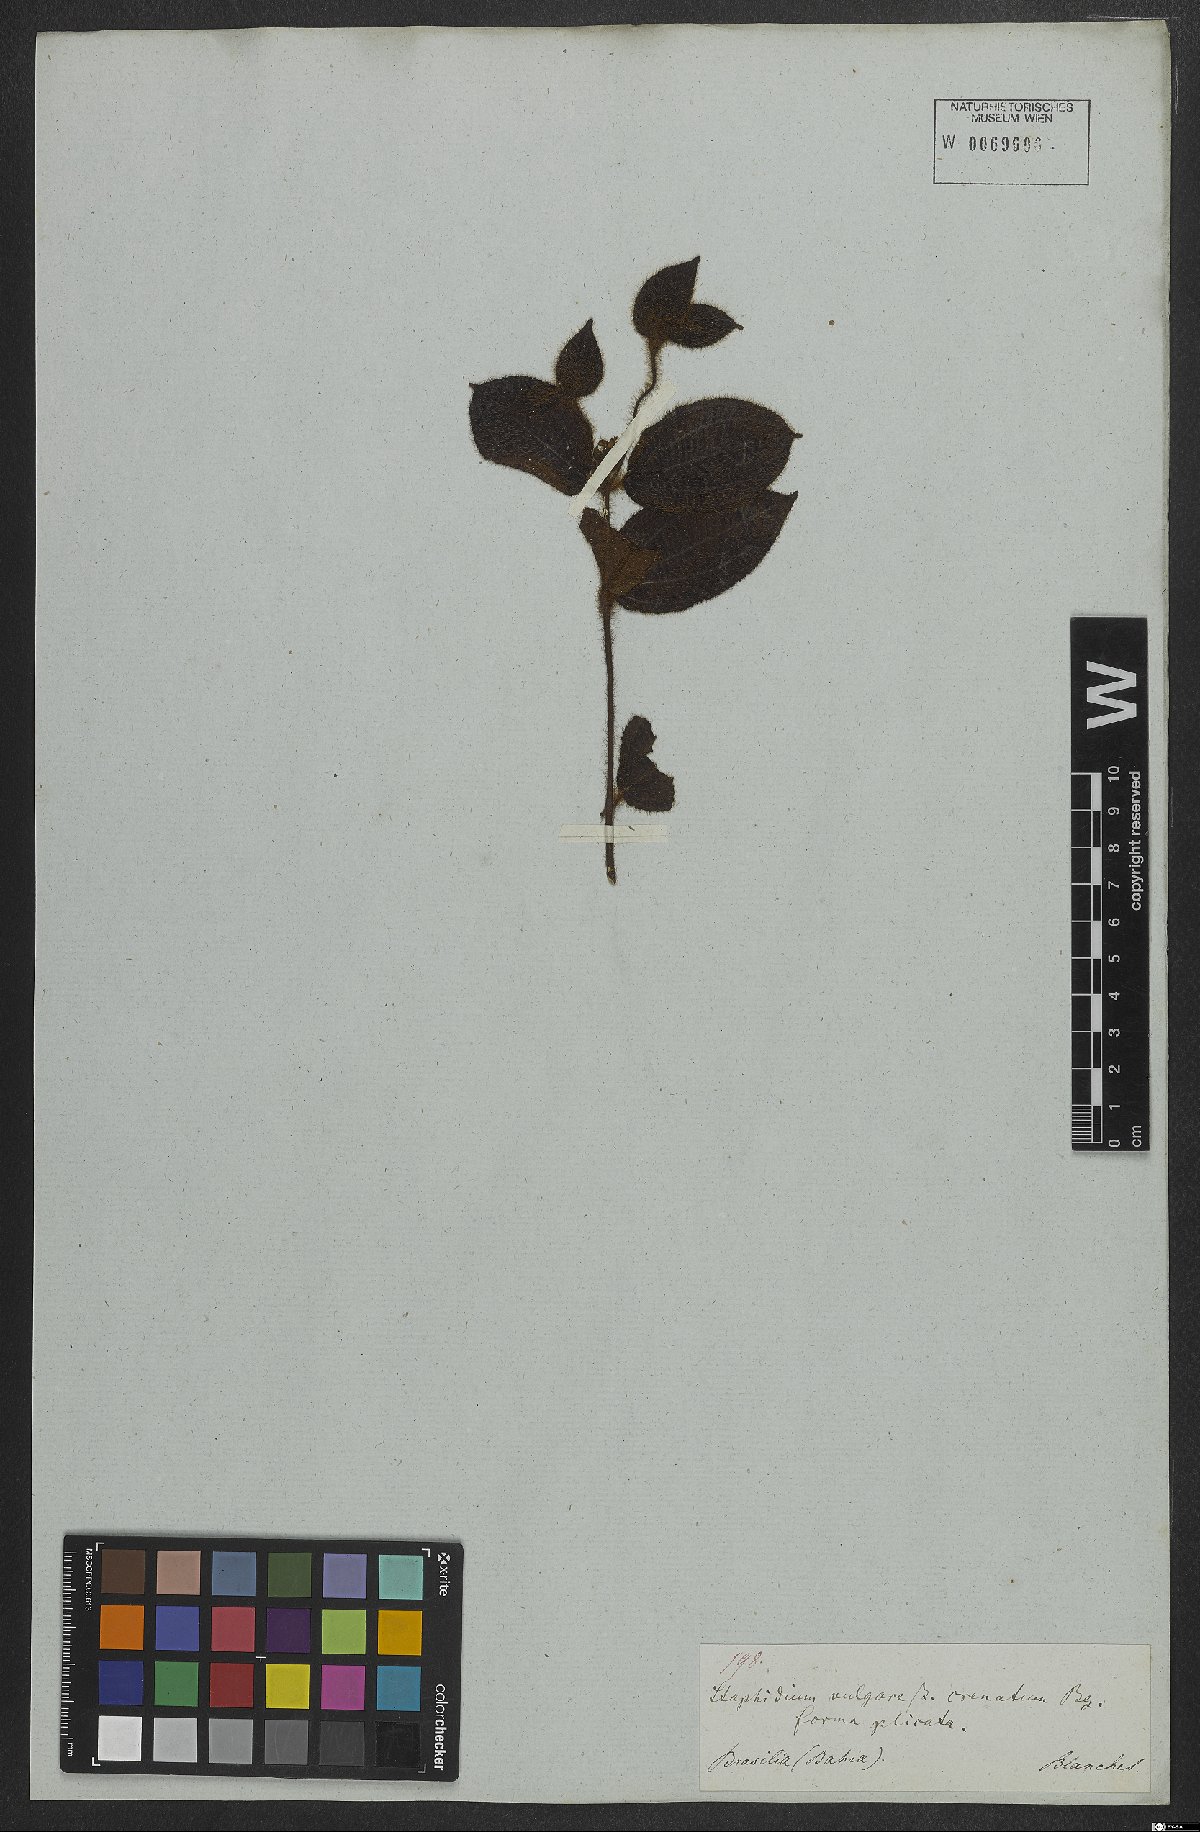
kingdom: Plantae
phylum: Tracheophyta
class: Magnoliopsida
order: Myrtales
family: Melastomataceae
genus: Miconia
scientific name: Miconia crenata
